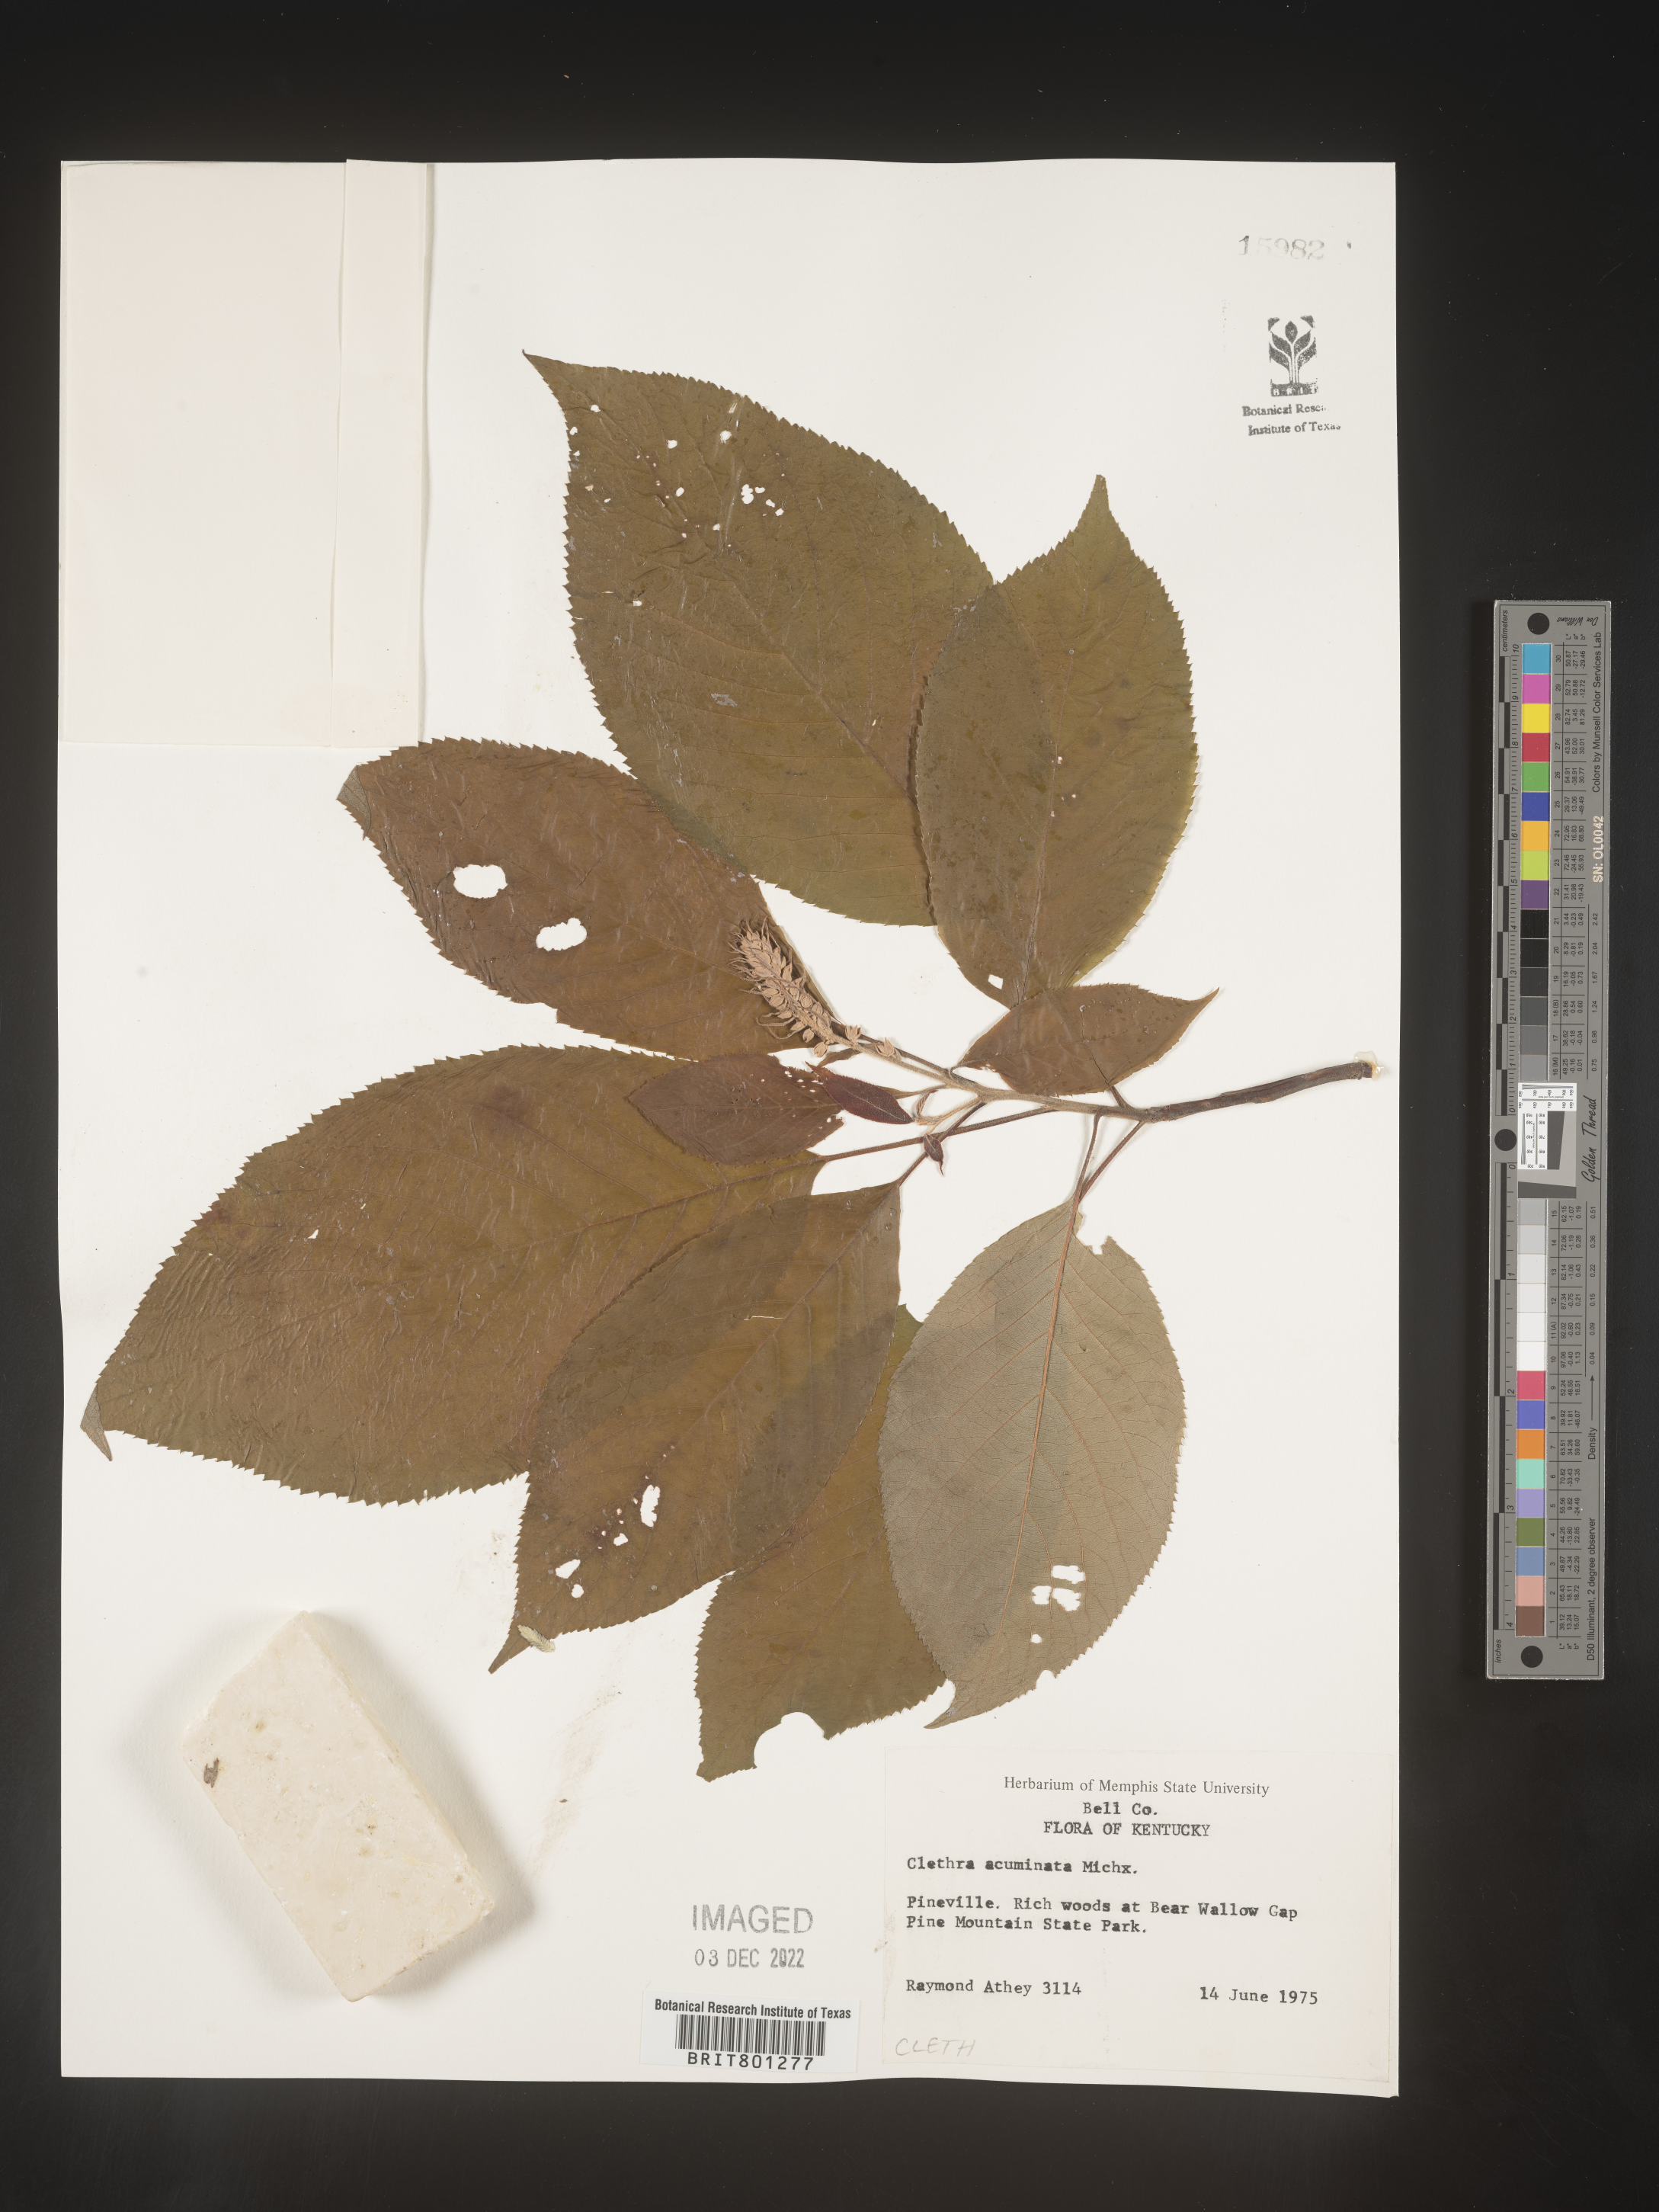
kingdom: Plantae
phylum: Tracheophyta
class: Magnoliopsida
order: Ericales
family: Clethraceae
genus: Clethra
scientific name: Clethra acuminata
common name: Mountain sweet pepperbush
